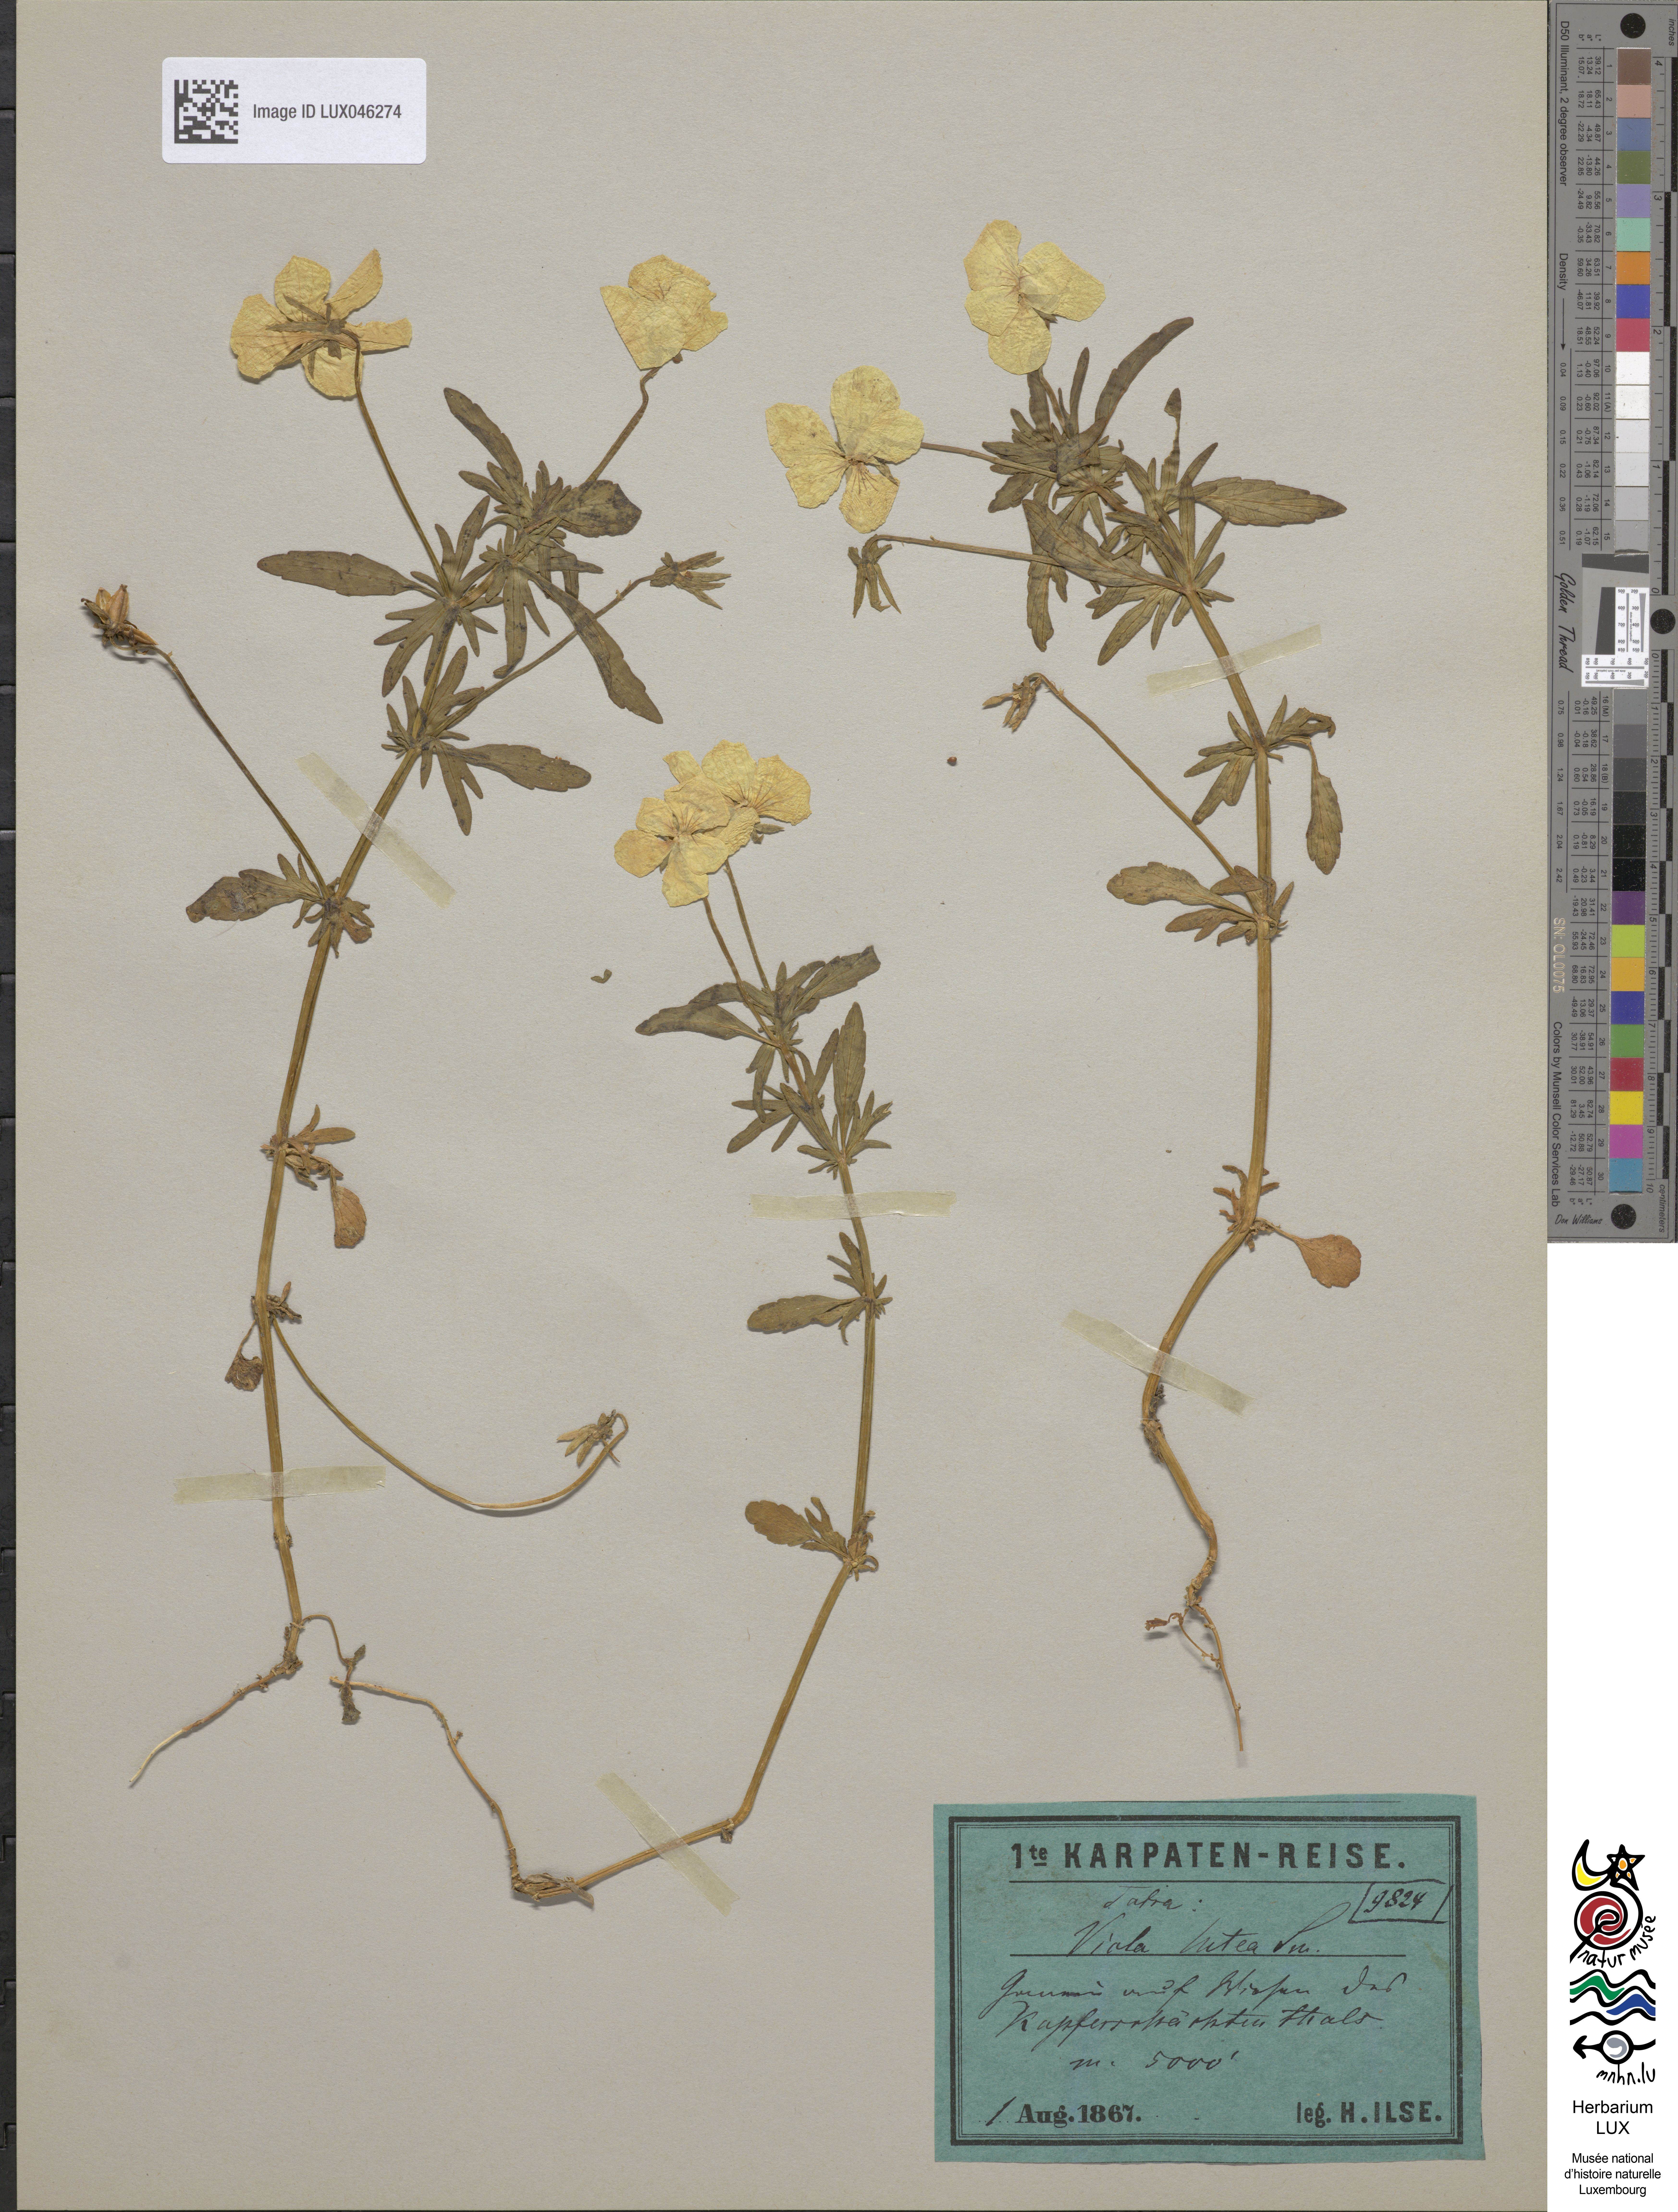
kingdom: Plantae
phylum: Tracheophyta
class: Magnoliopsida
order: Malpighiales
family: Violaceae
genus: Viola
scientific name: Viola lutea
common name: Mountain pansy
